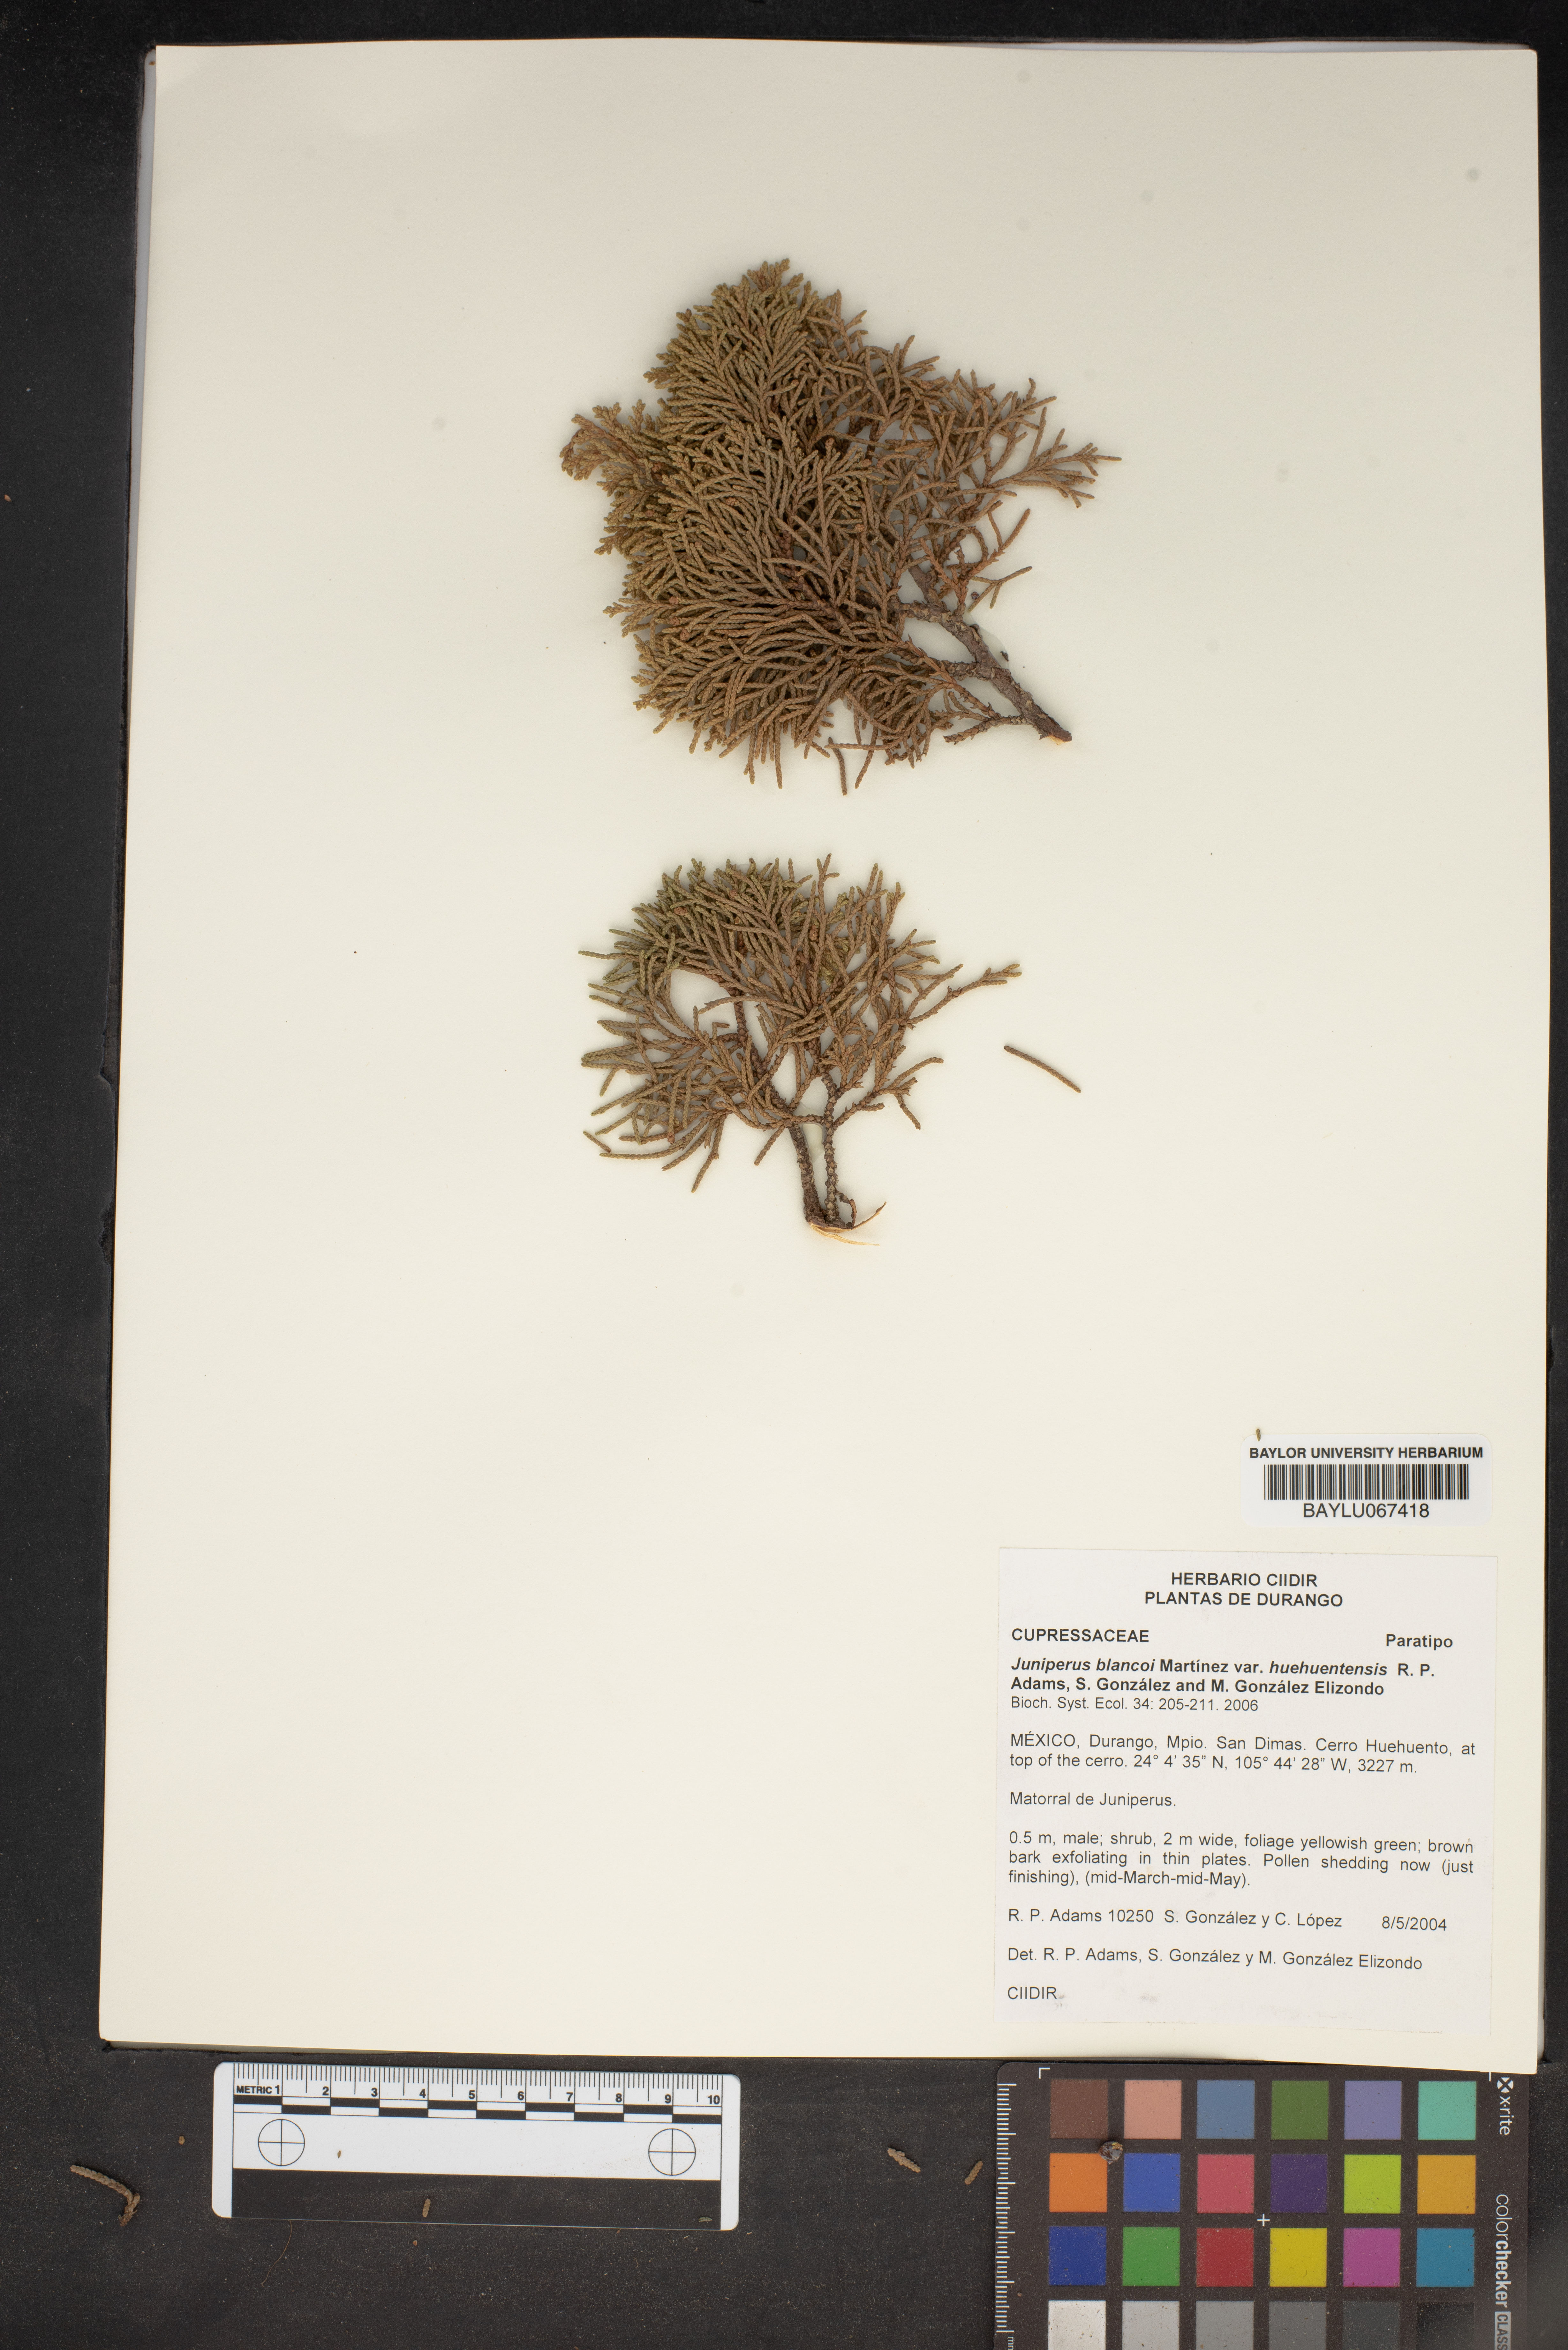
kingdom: Plantae
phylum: Tracheophyta
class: Pinopsida
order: Pinales
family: Cupressaceae
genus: Juniperus
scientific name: Juniperus blancoi
